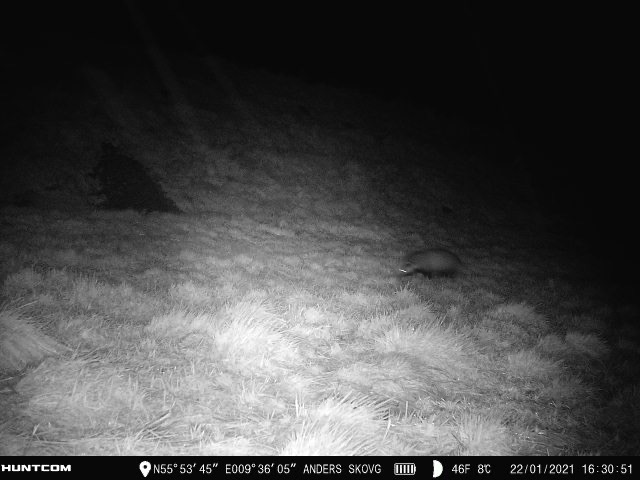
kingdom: Animalia
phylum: Chordata
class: Mammalia
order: Carnivora
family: Mustelidae
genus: Meles
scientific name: Meles meles
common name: Grævling
